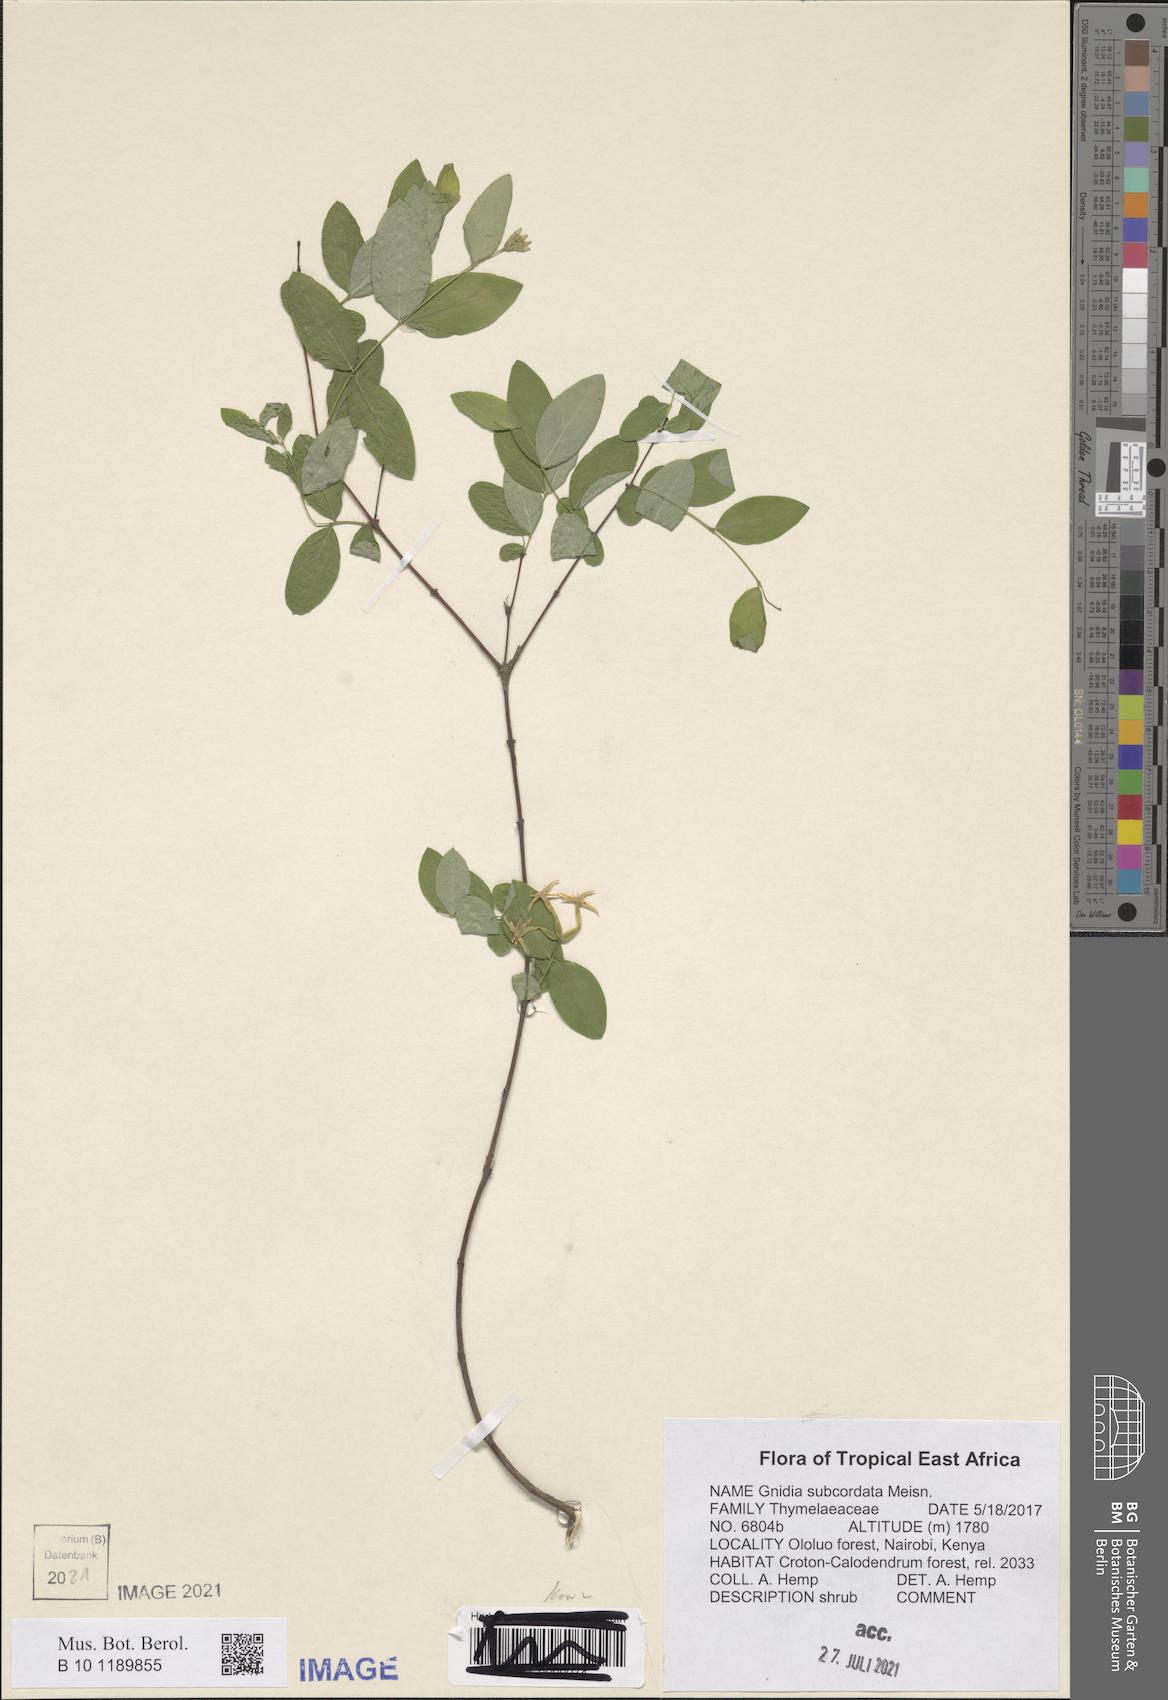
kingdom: Plantae
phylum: Tracheophyta
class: Magnoliopsida
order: Malvales
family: Thymelaeaceae
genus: Gnidia
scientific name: Gnidia subcordata
